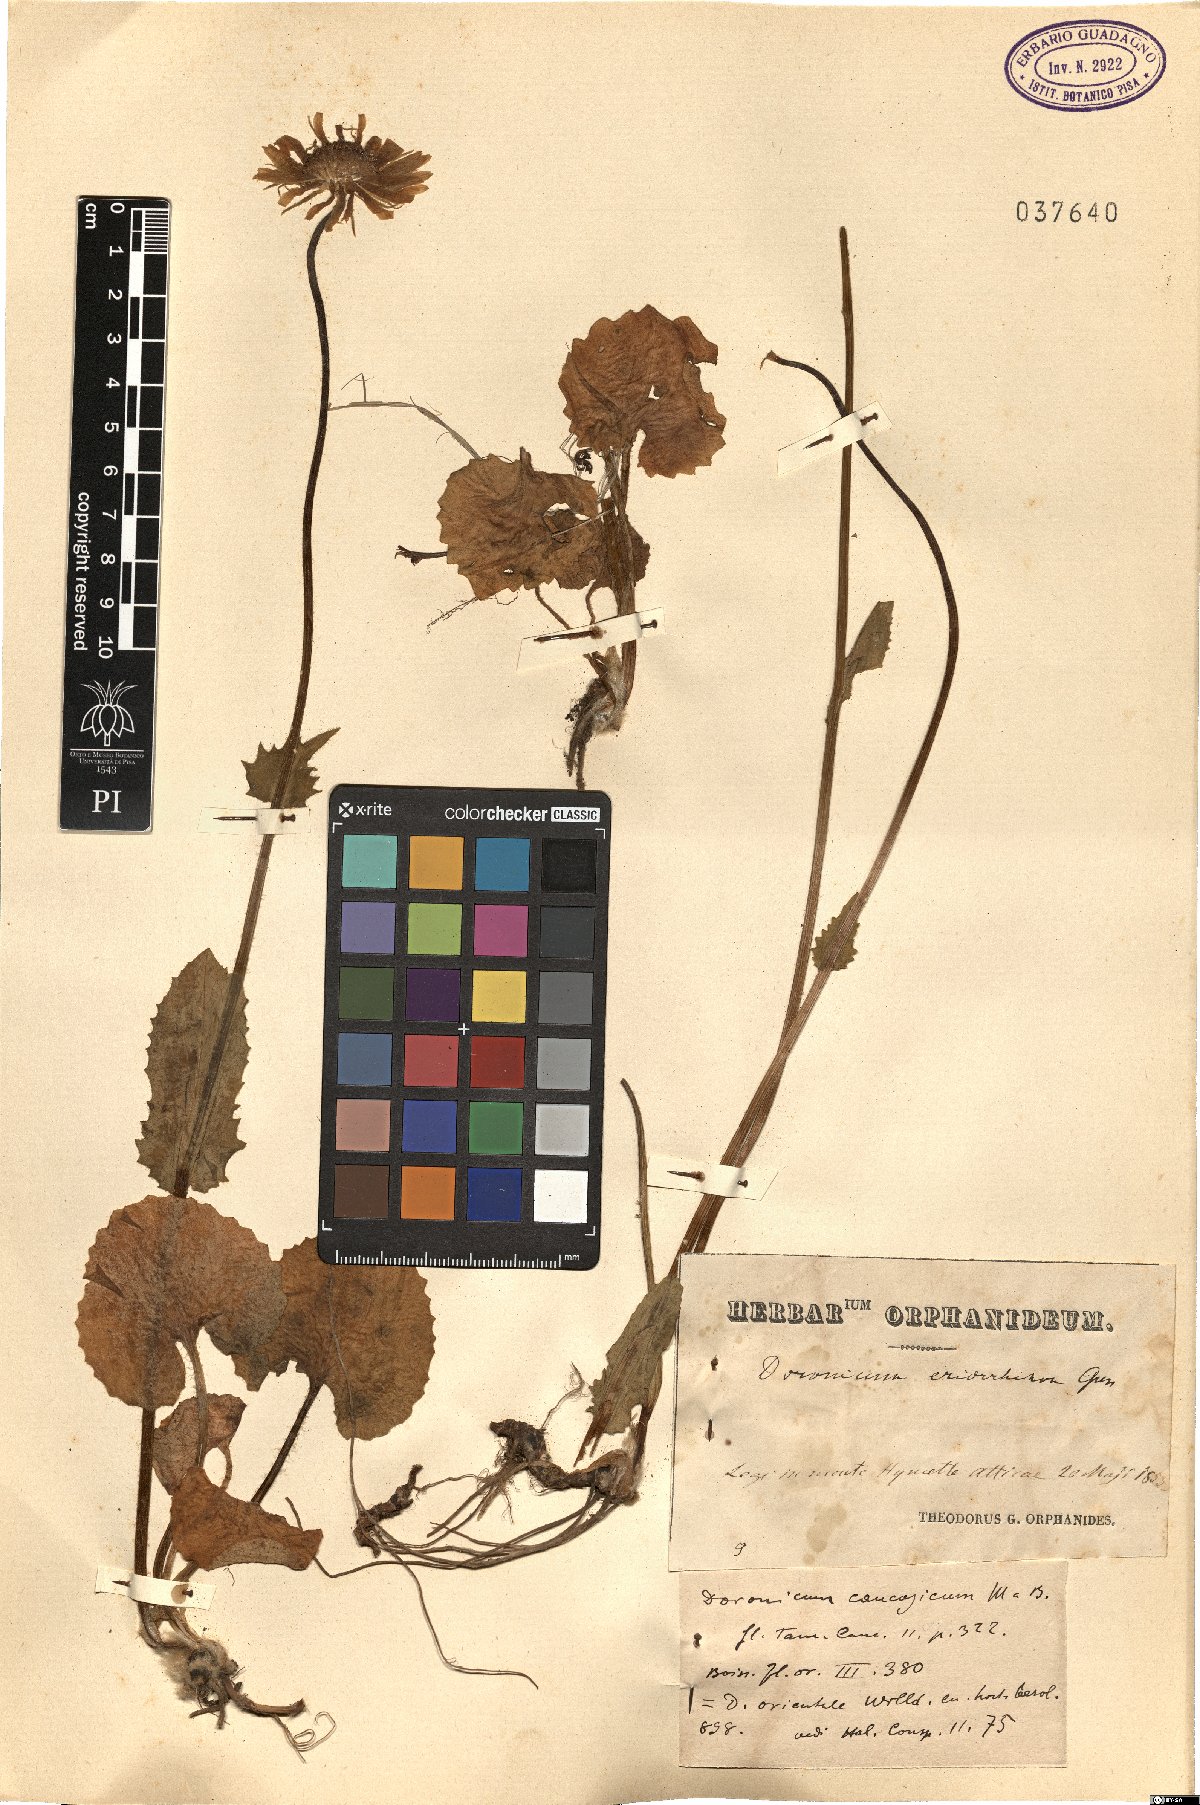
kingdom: Plantae
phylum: Tracheophyta
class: Magnoliopsida
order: Asterales
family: Asteraceae
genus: Doronicum
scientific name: Doronicum orientale
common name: Oriental leopard's-bane
